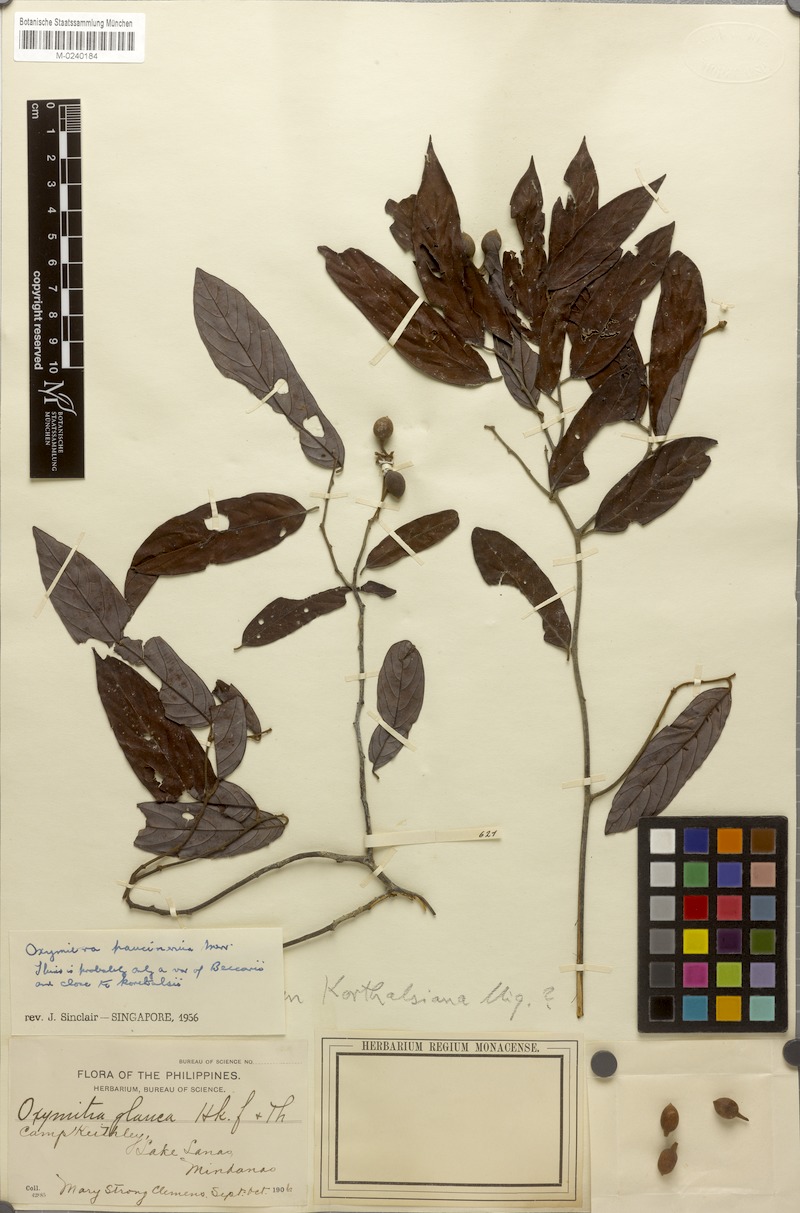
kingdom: Plantae
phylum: Tracheophyta
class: Magnoliopsida
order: Magnoliales
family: Annonaceae
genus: Meiogyne
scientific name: Meiogyne virgata
